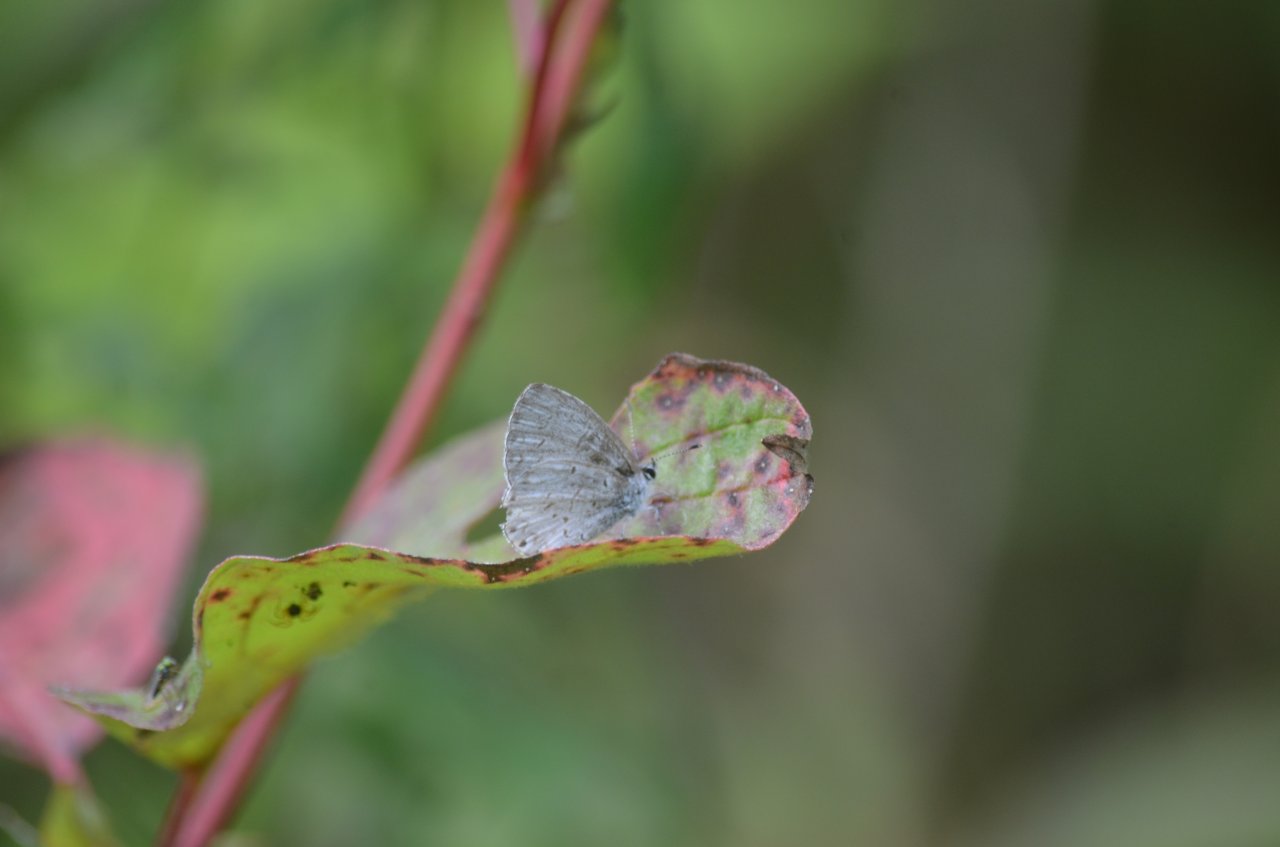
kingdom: Animalia
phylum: Arthropoda
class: Insecta
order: Lepidoptera
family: Lycaenidae
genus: Celastrina
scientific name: Celastrina
